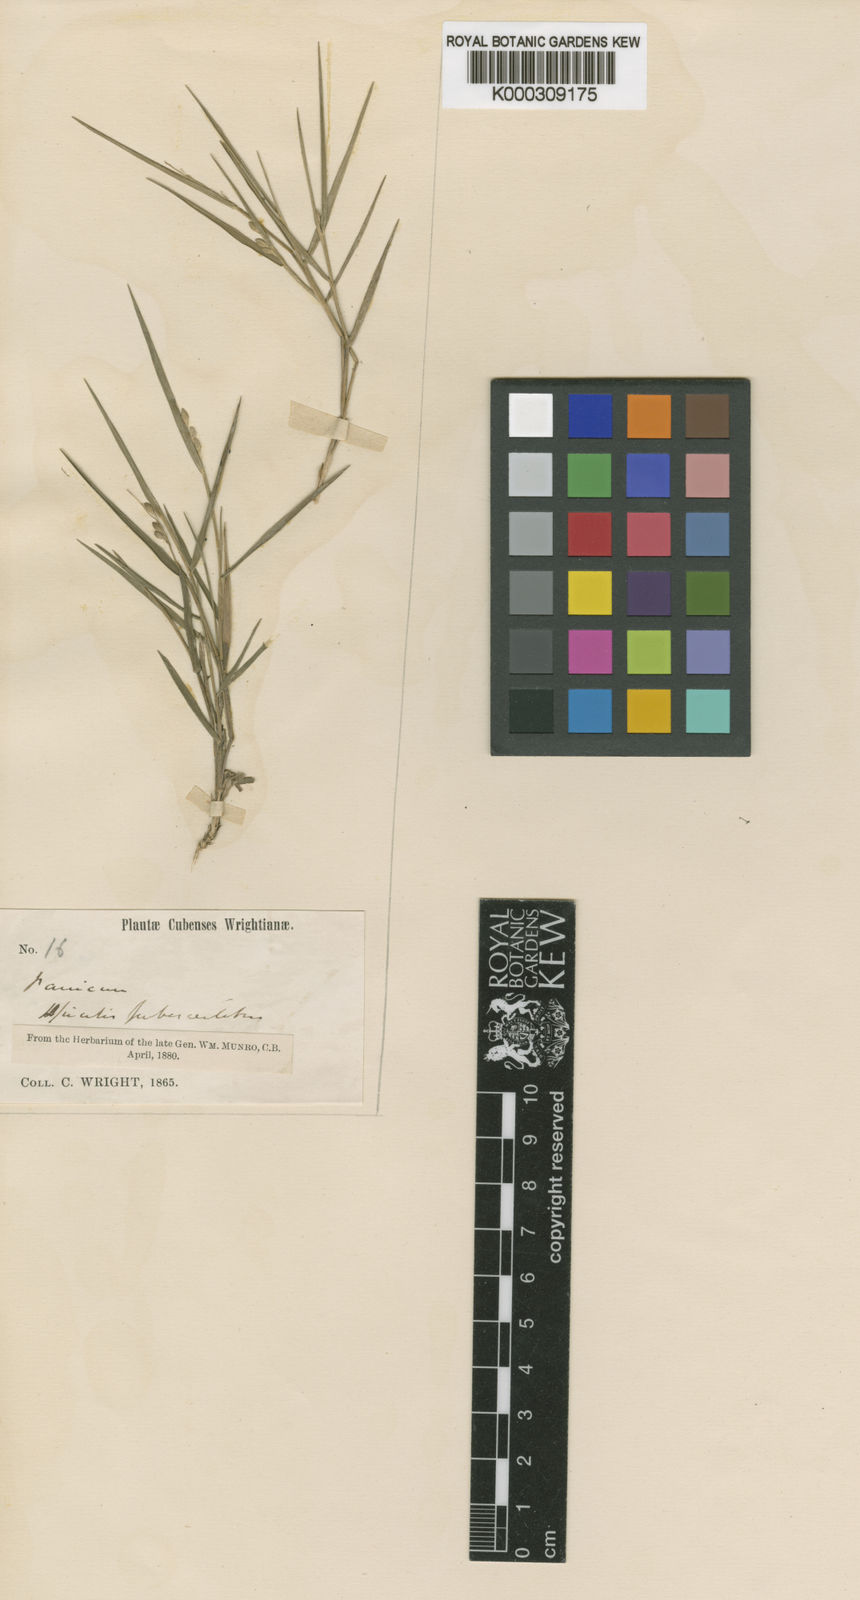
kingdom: Plantae
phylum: Tracheophyta
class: Liliopsida
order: Poales
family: Poaceae
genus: Dichanthelium
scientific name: Dichanthelium aciculare
